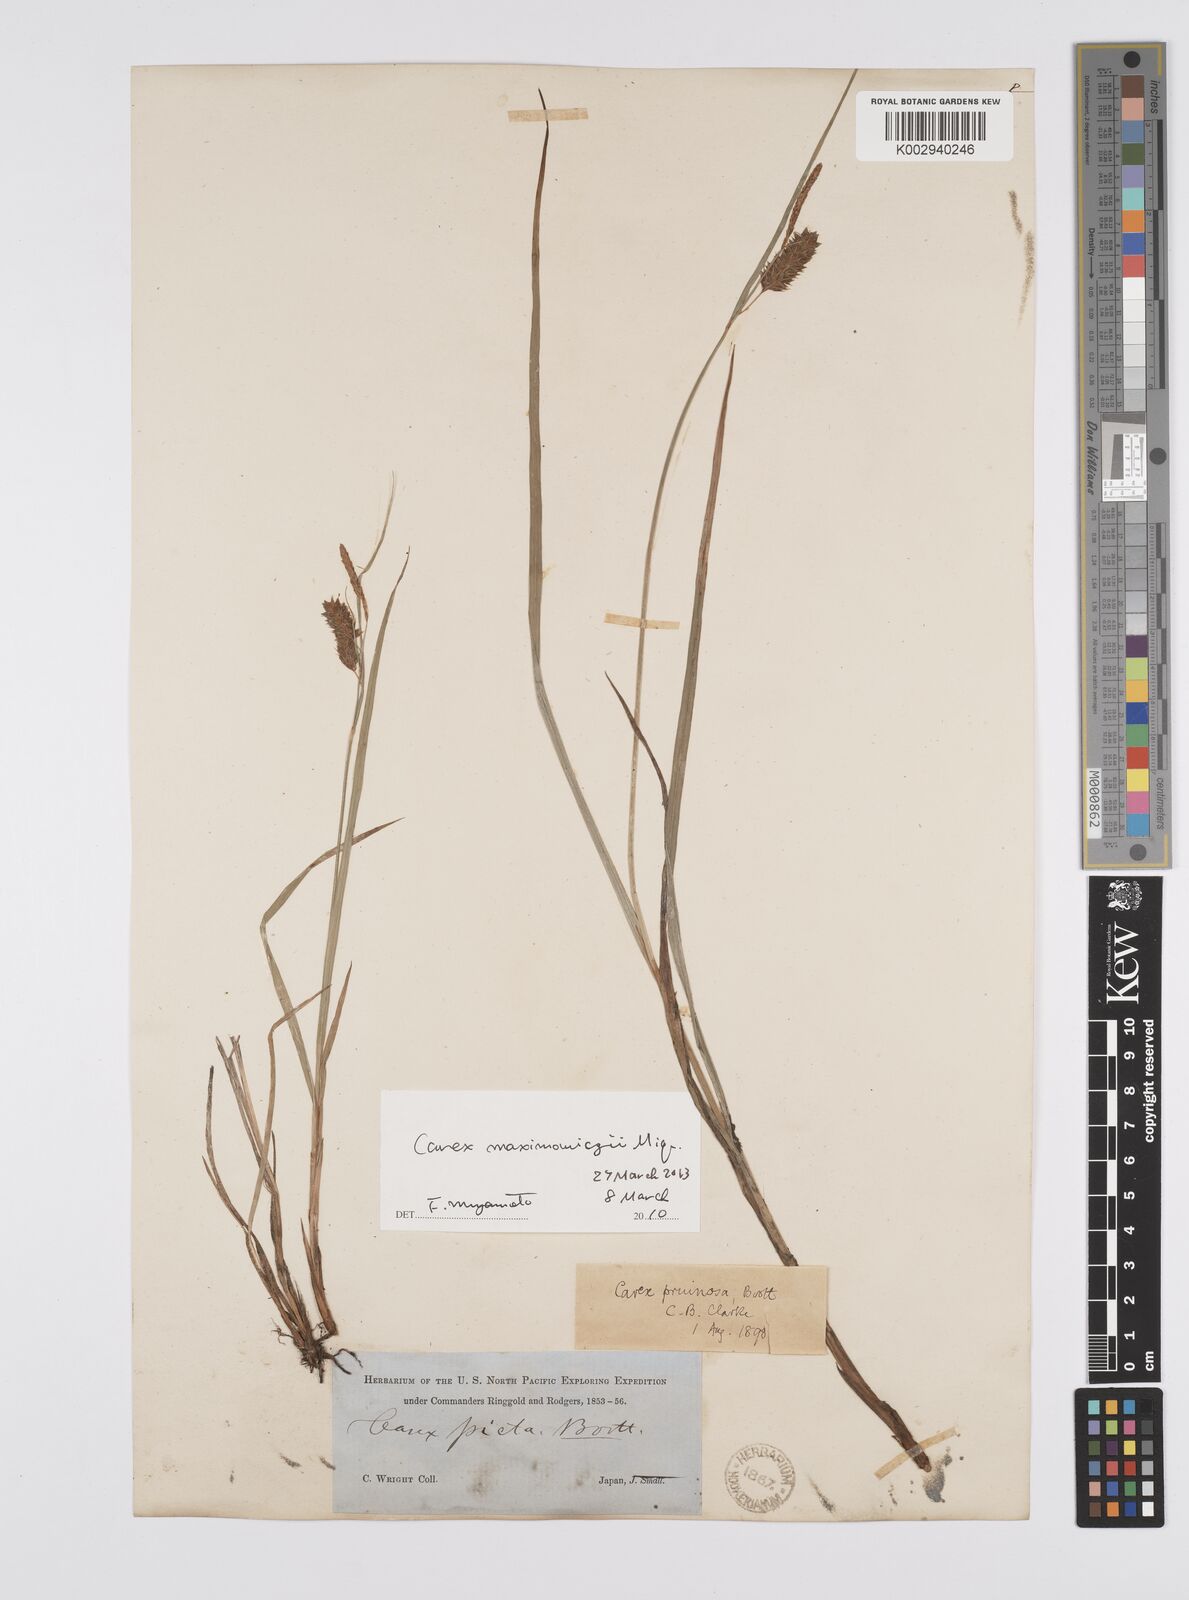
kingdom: Plantae
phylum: Tracheophyta
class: Liliopsida
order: Poales
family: Cyperaceae
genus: Carex
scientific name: Carex pruinosa
